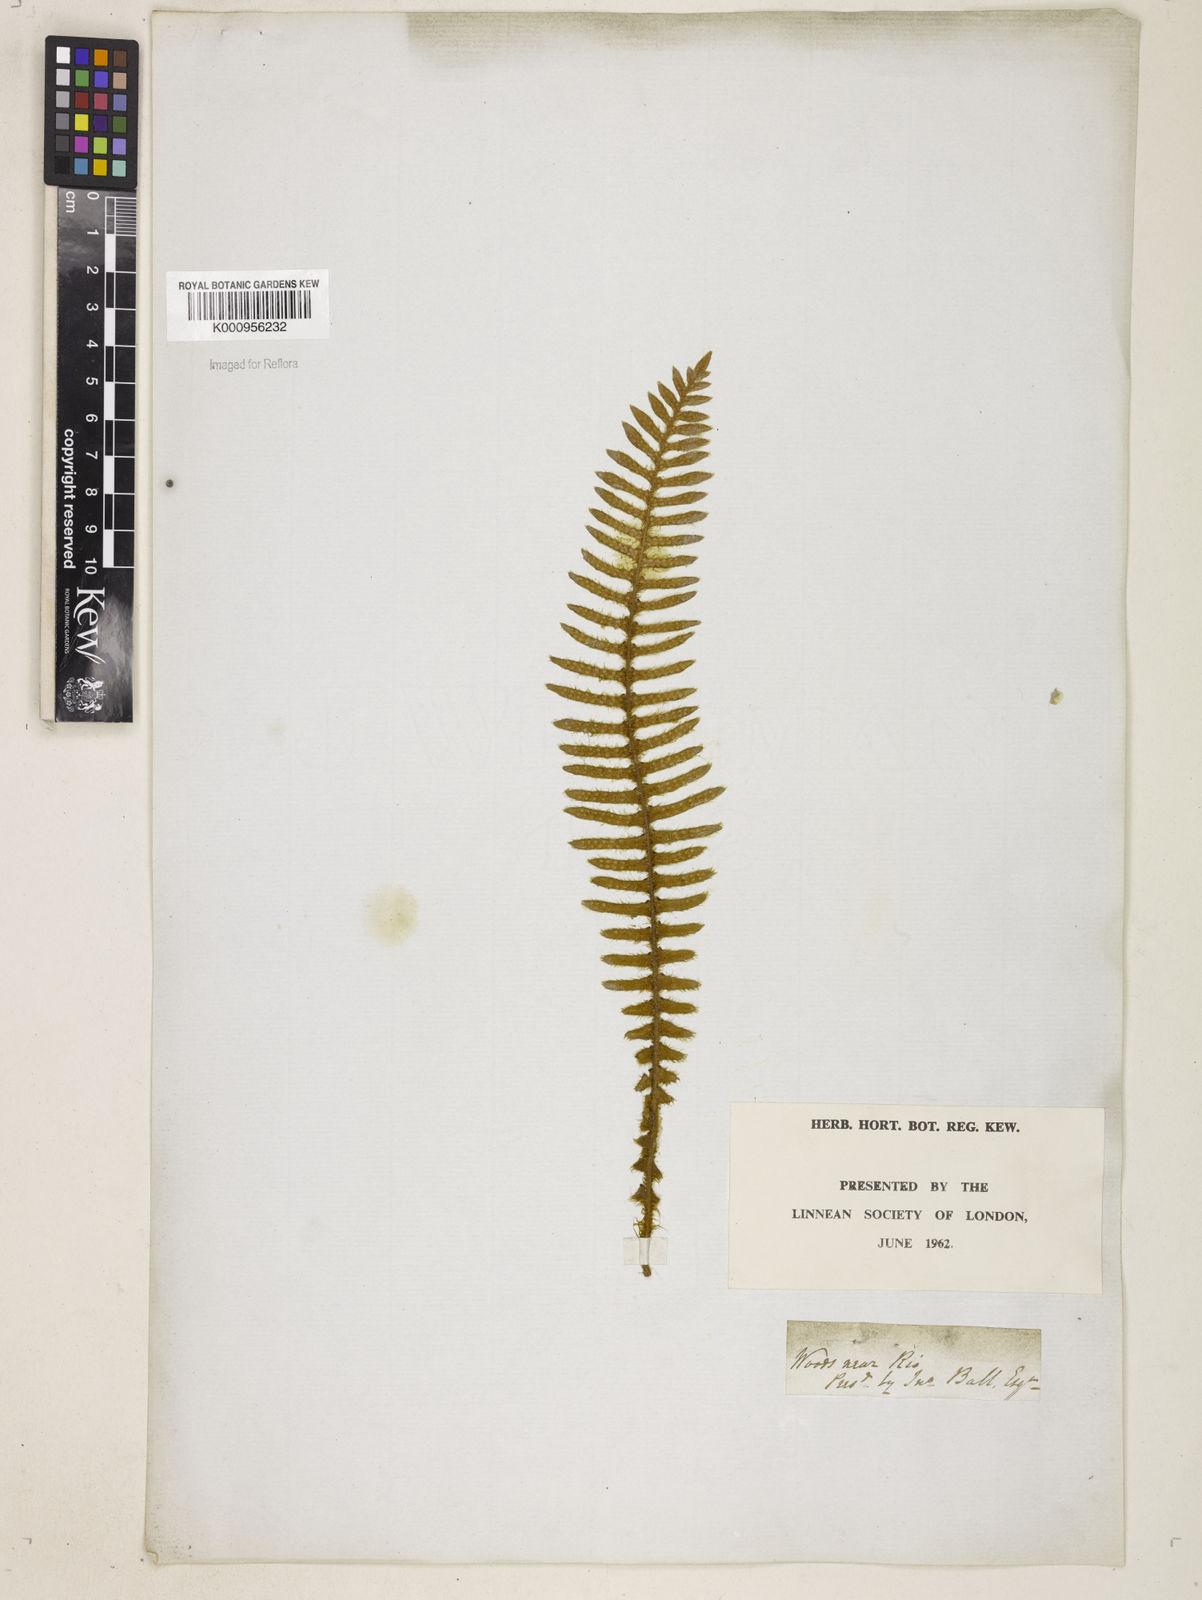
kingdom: Plantae
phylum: Tracheophyta
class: Polypodiopsida
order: Polypodiales
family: Polypodiaceae
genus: Pleopeltis
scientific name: Pleopeltis hirsutissima
